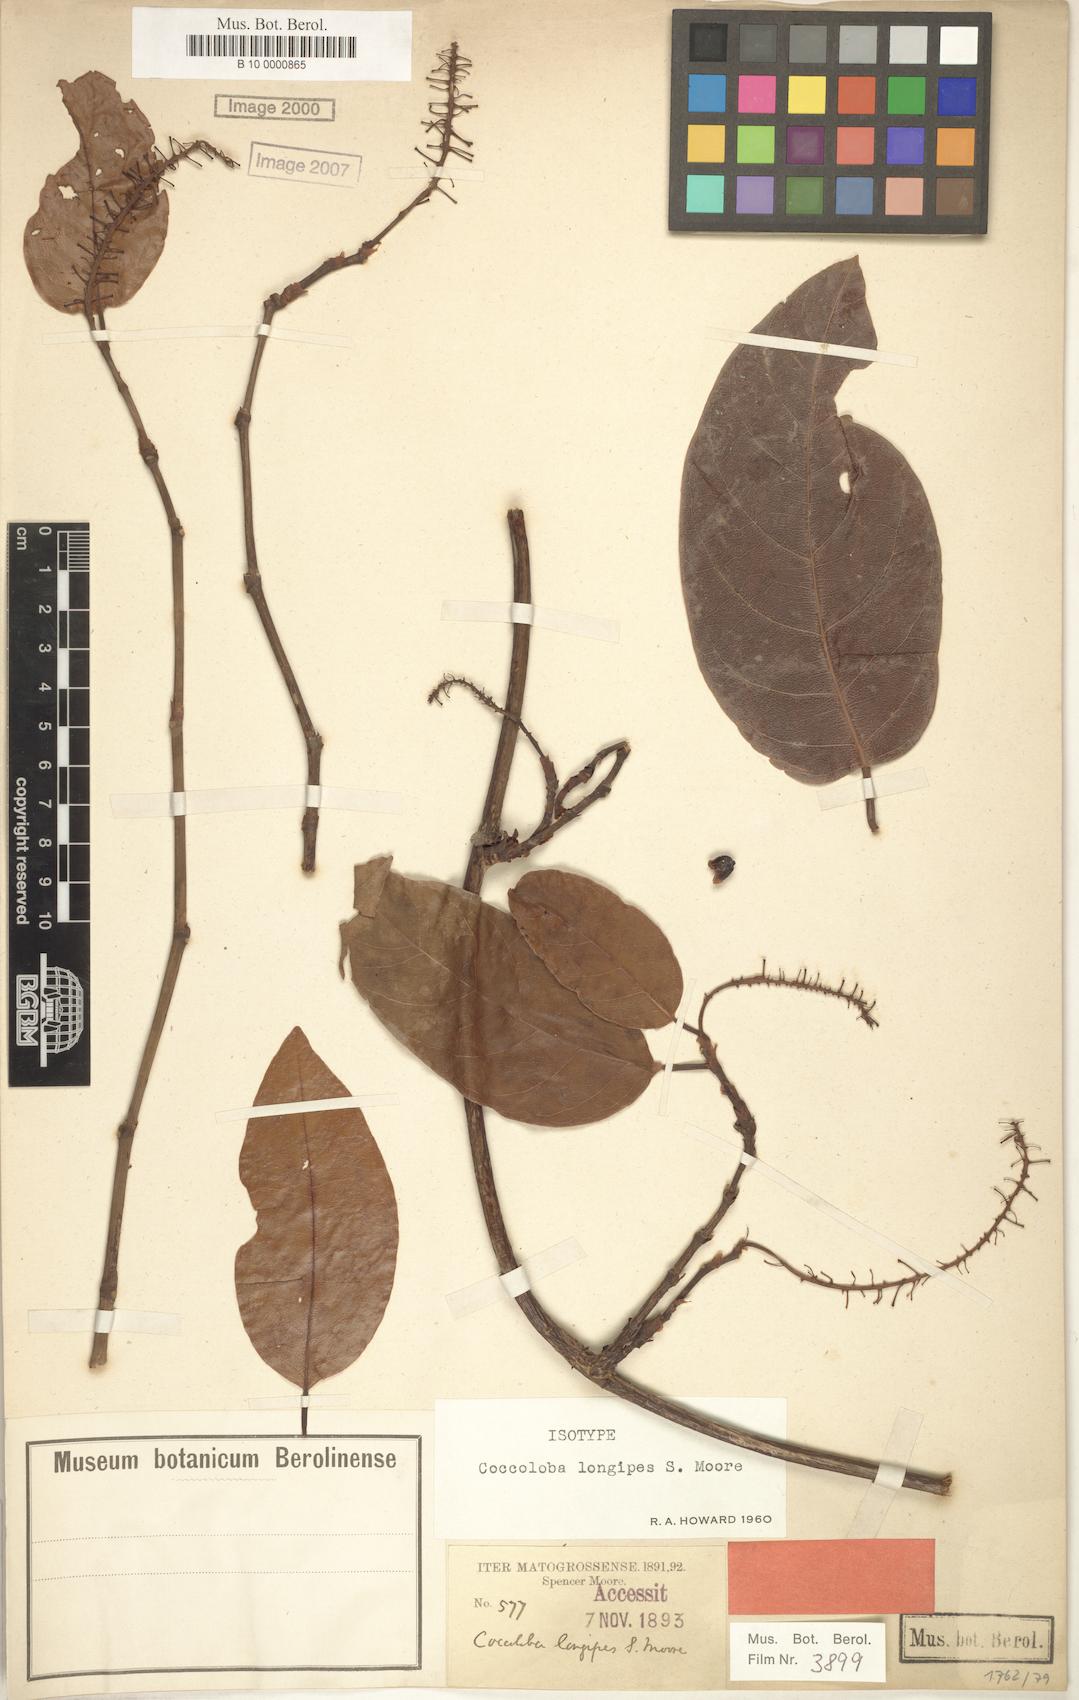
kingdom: Plantae
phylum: Tracheophyta
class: Magnoliopsida
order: Caryophyllales
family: Polygonaceae
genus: Coccoloba
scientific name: Coccoloba longipes
